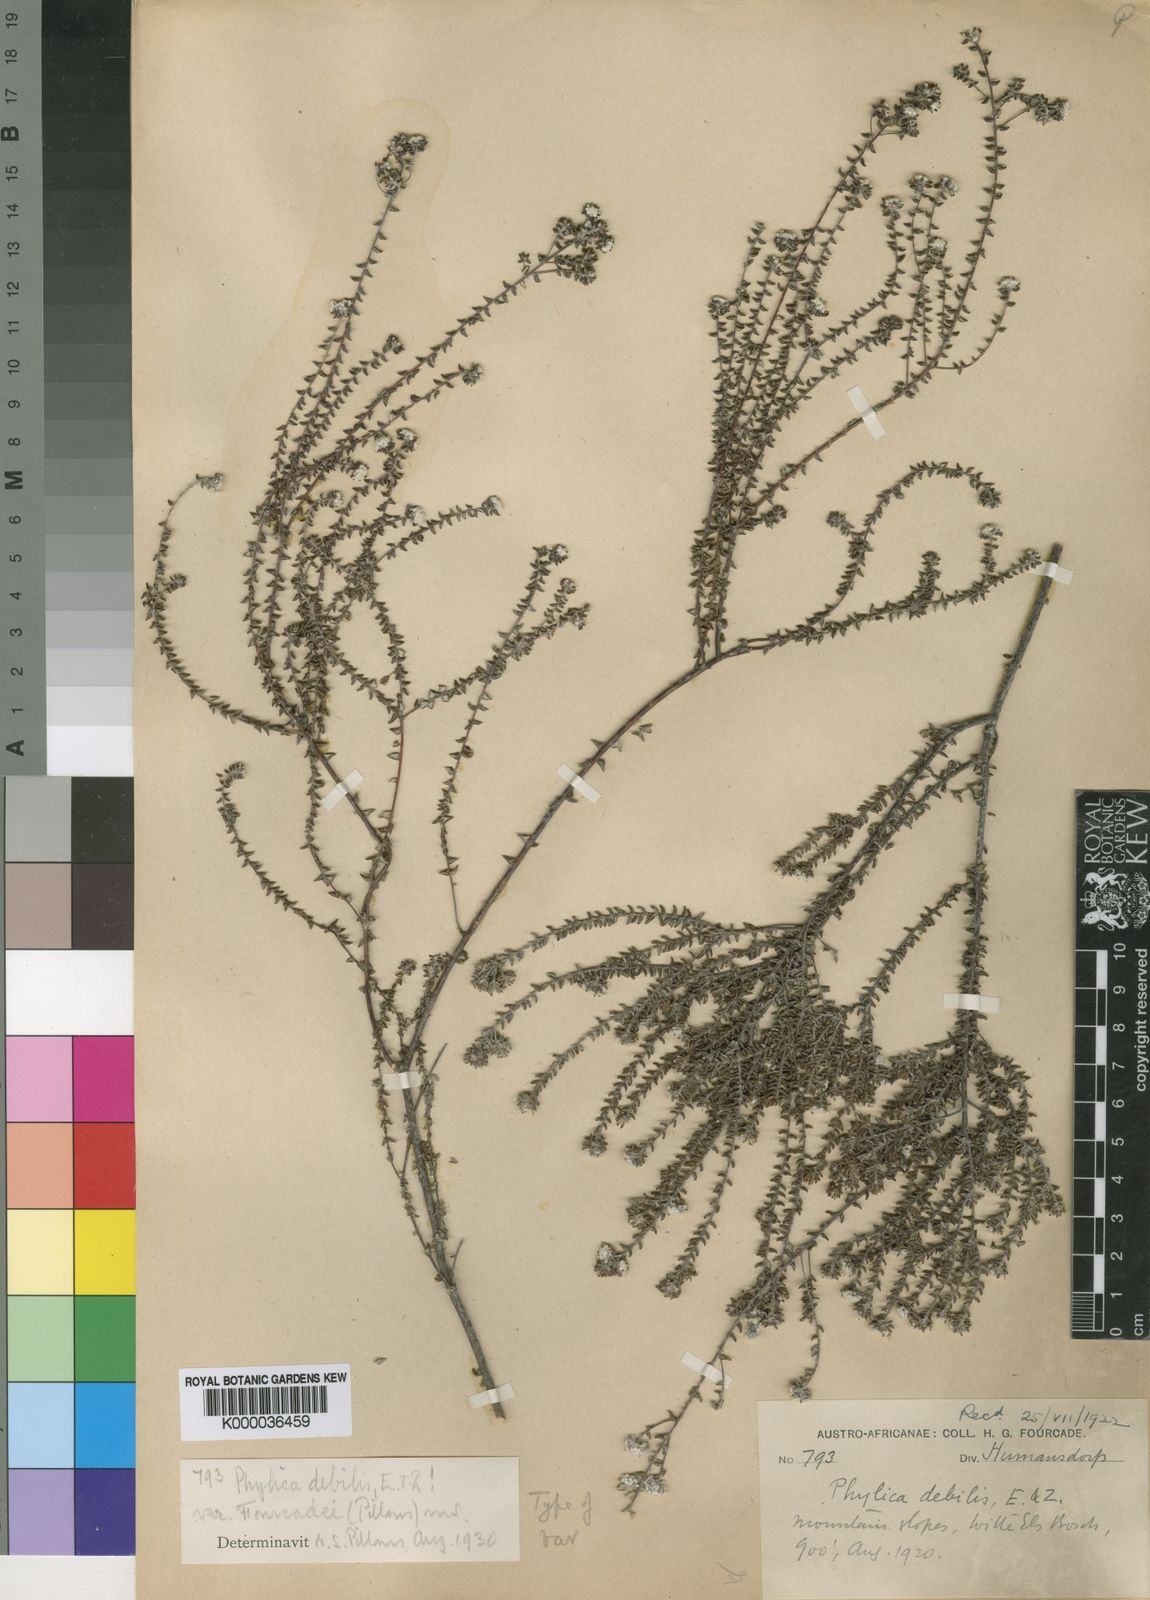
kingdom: Plantae
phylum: Tracheophyta
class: Magnoliopsida
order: Rosales
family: Rhamnaceae
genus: Phylica
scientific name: Phylica debilis
